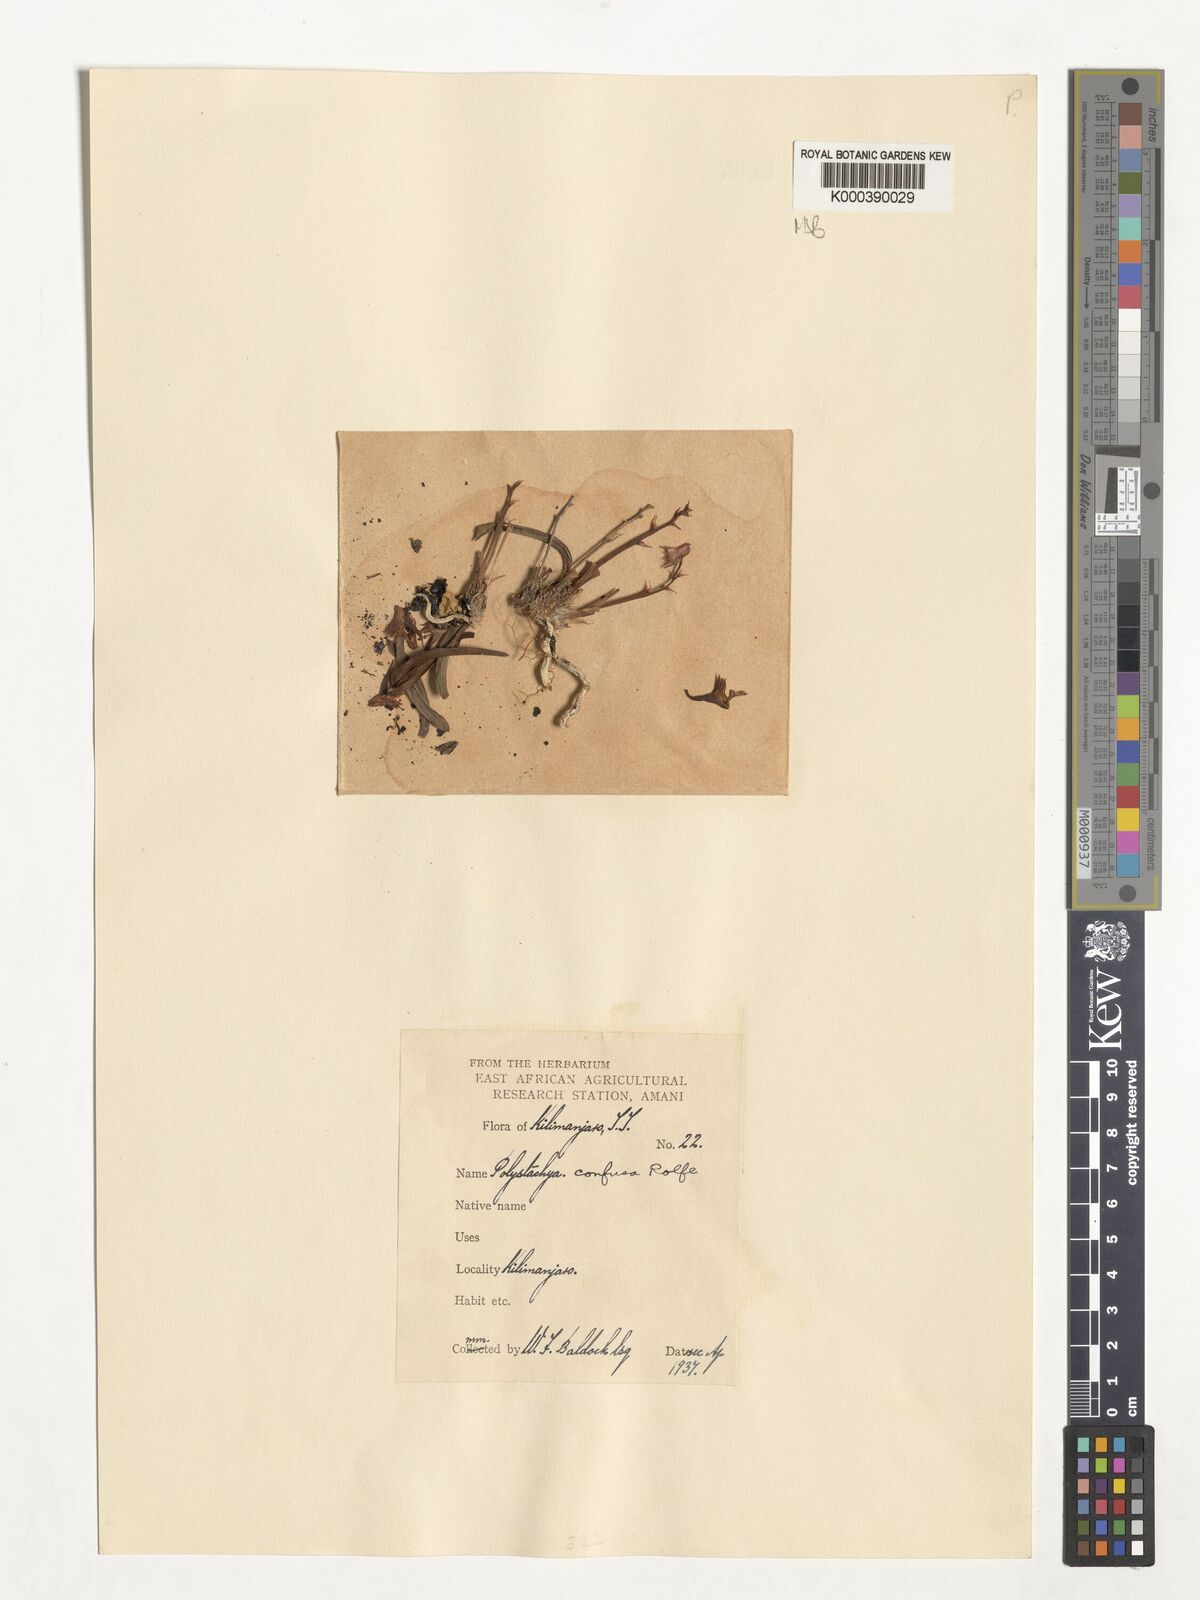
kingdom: Plantae
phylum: Tracheophyta
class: Liliopsida
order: Asparagales
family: Orchidaceae
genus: Polystachya
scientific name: Polystachya confusa
